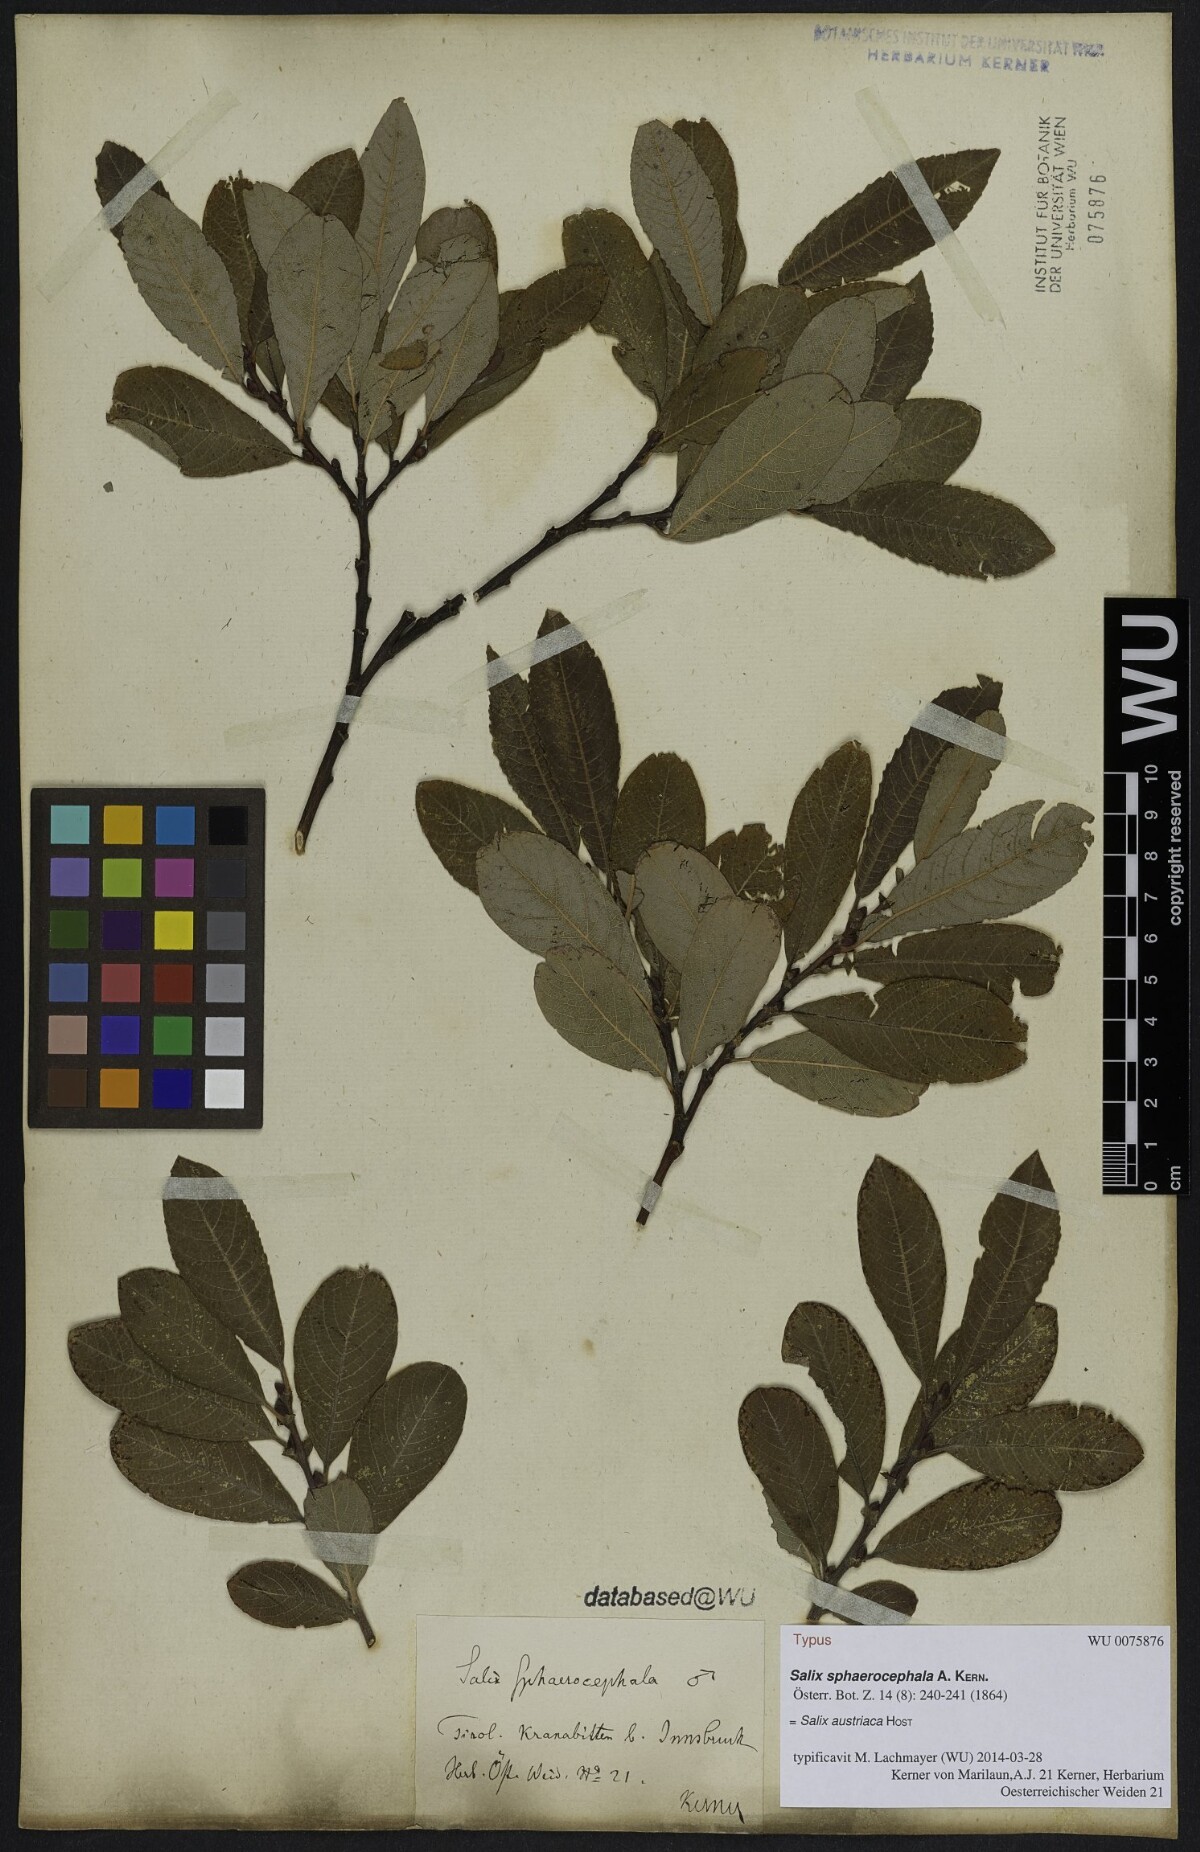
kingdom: Plantae
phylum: Tracheophyta
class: Magnoliopsida
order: Malpighiales
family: Salicaceae
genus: Salix
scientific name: Salix purpurea
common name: Purple willow
